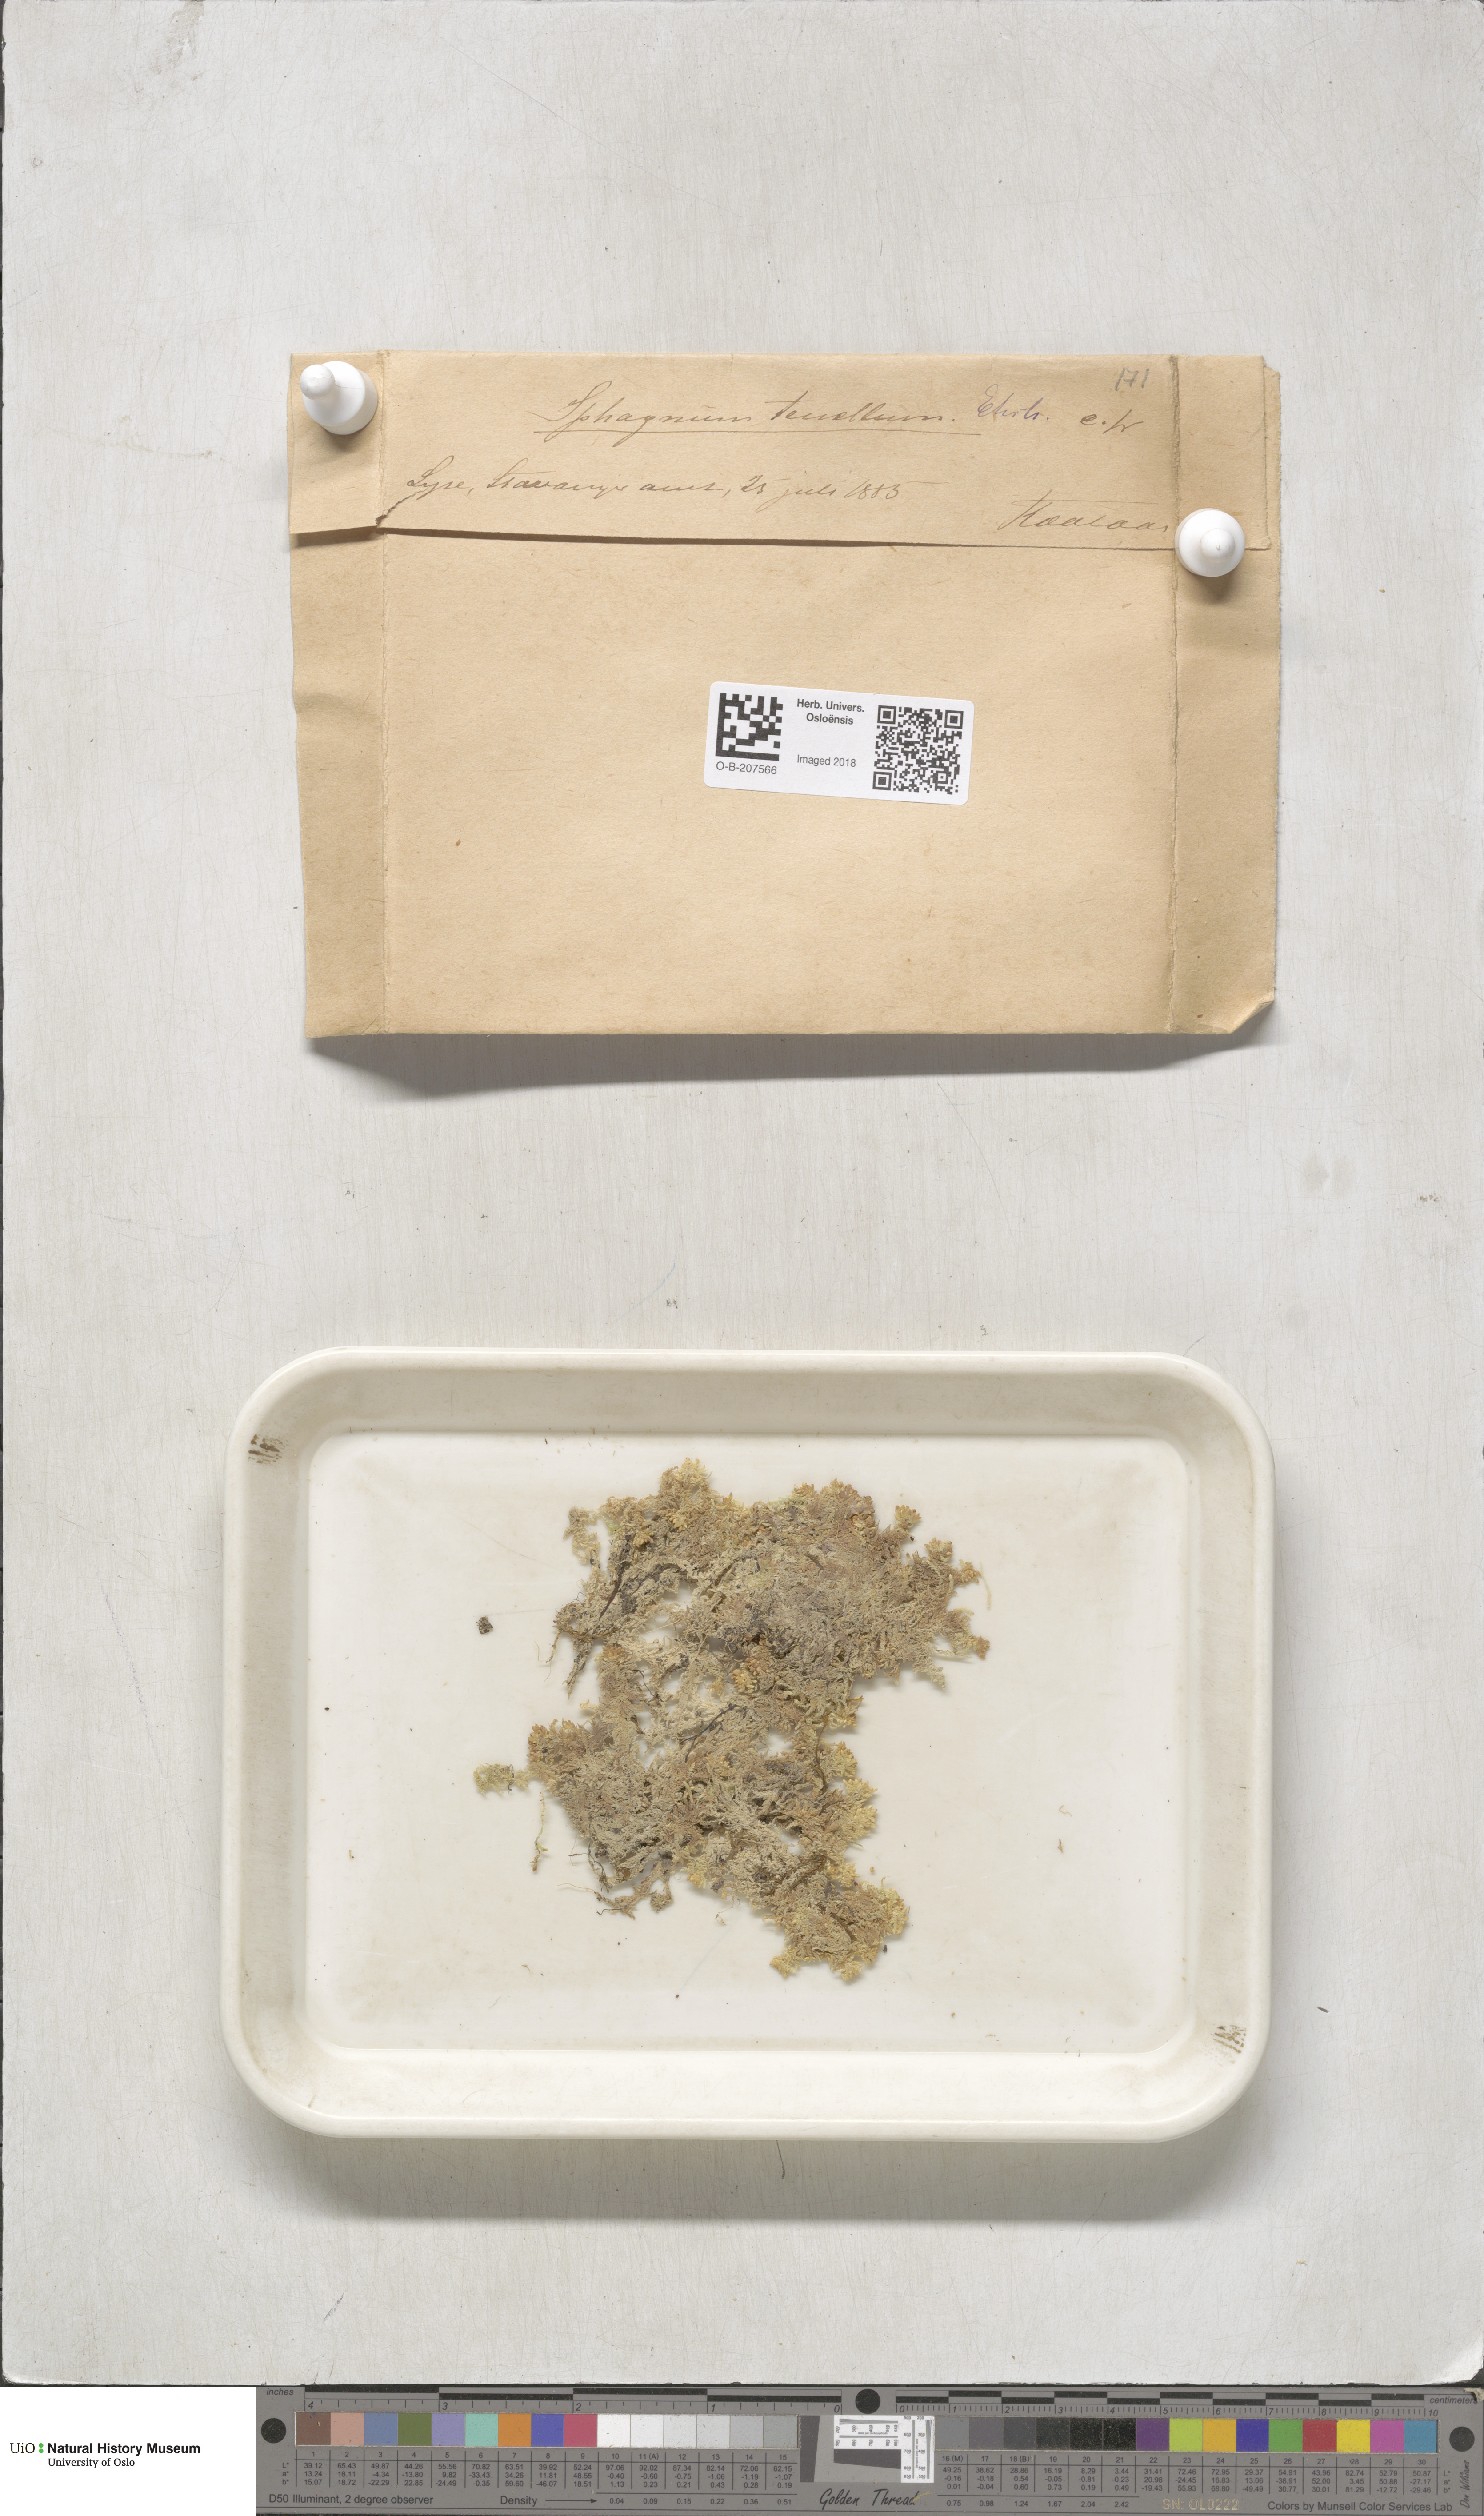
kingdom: Plantae
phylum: Bryophyta
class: Sphagnopsida
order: Sphagnales
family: Sphagnaceae
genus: Sphagnum
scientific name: Sphagnum tenellum
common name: Soft bog-moss
